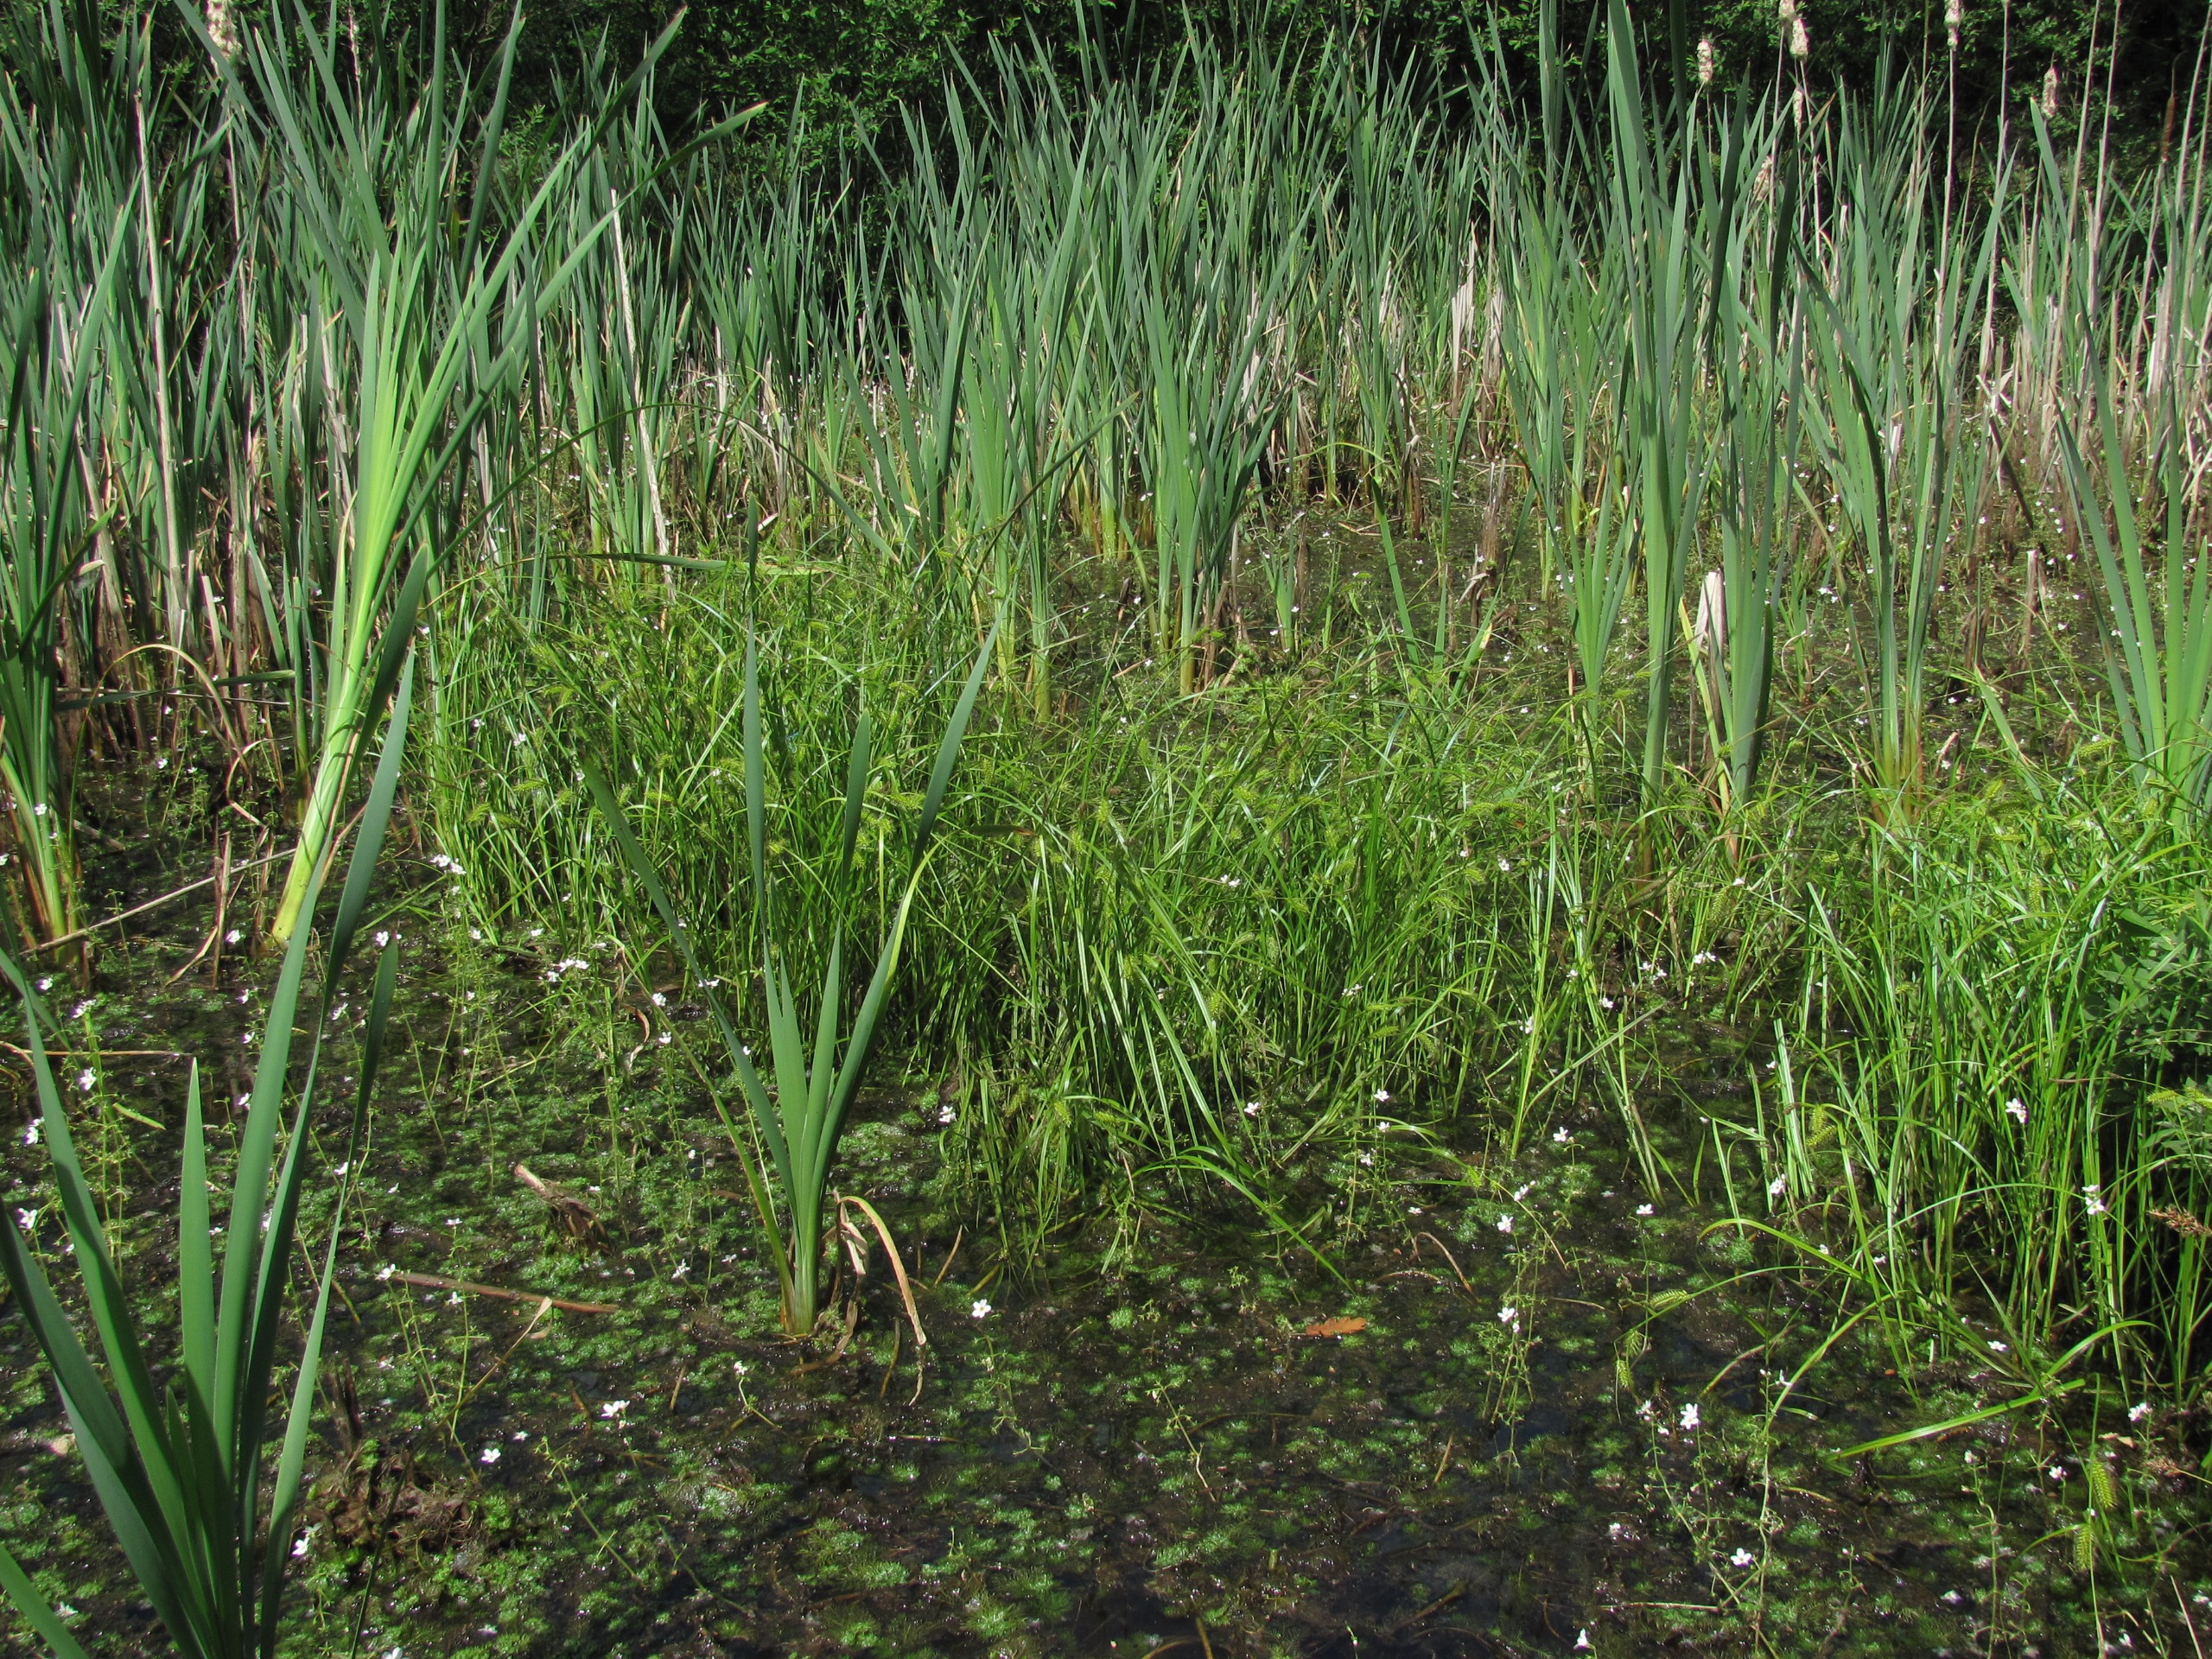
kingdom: Plantae
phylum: Tracheophyta
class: Liliopsida
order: Poales
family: Cyperaceae
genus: Carex
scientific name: Carex vesicaria
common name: Blære-star
